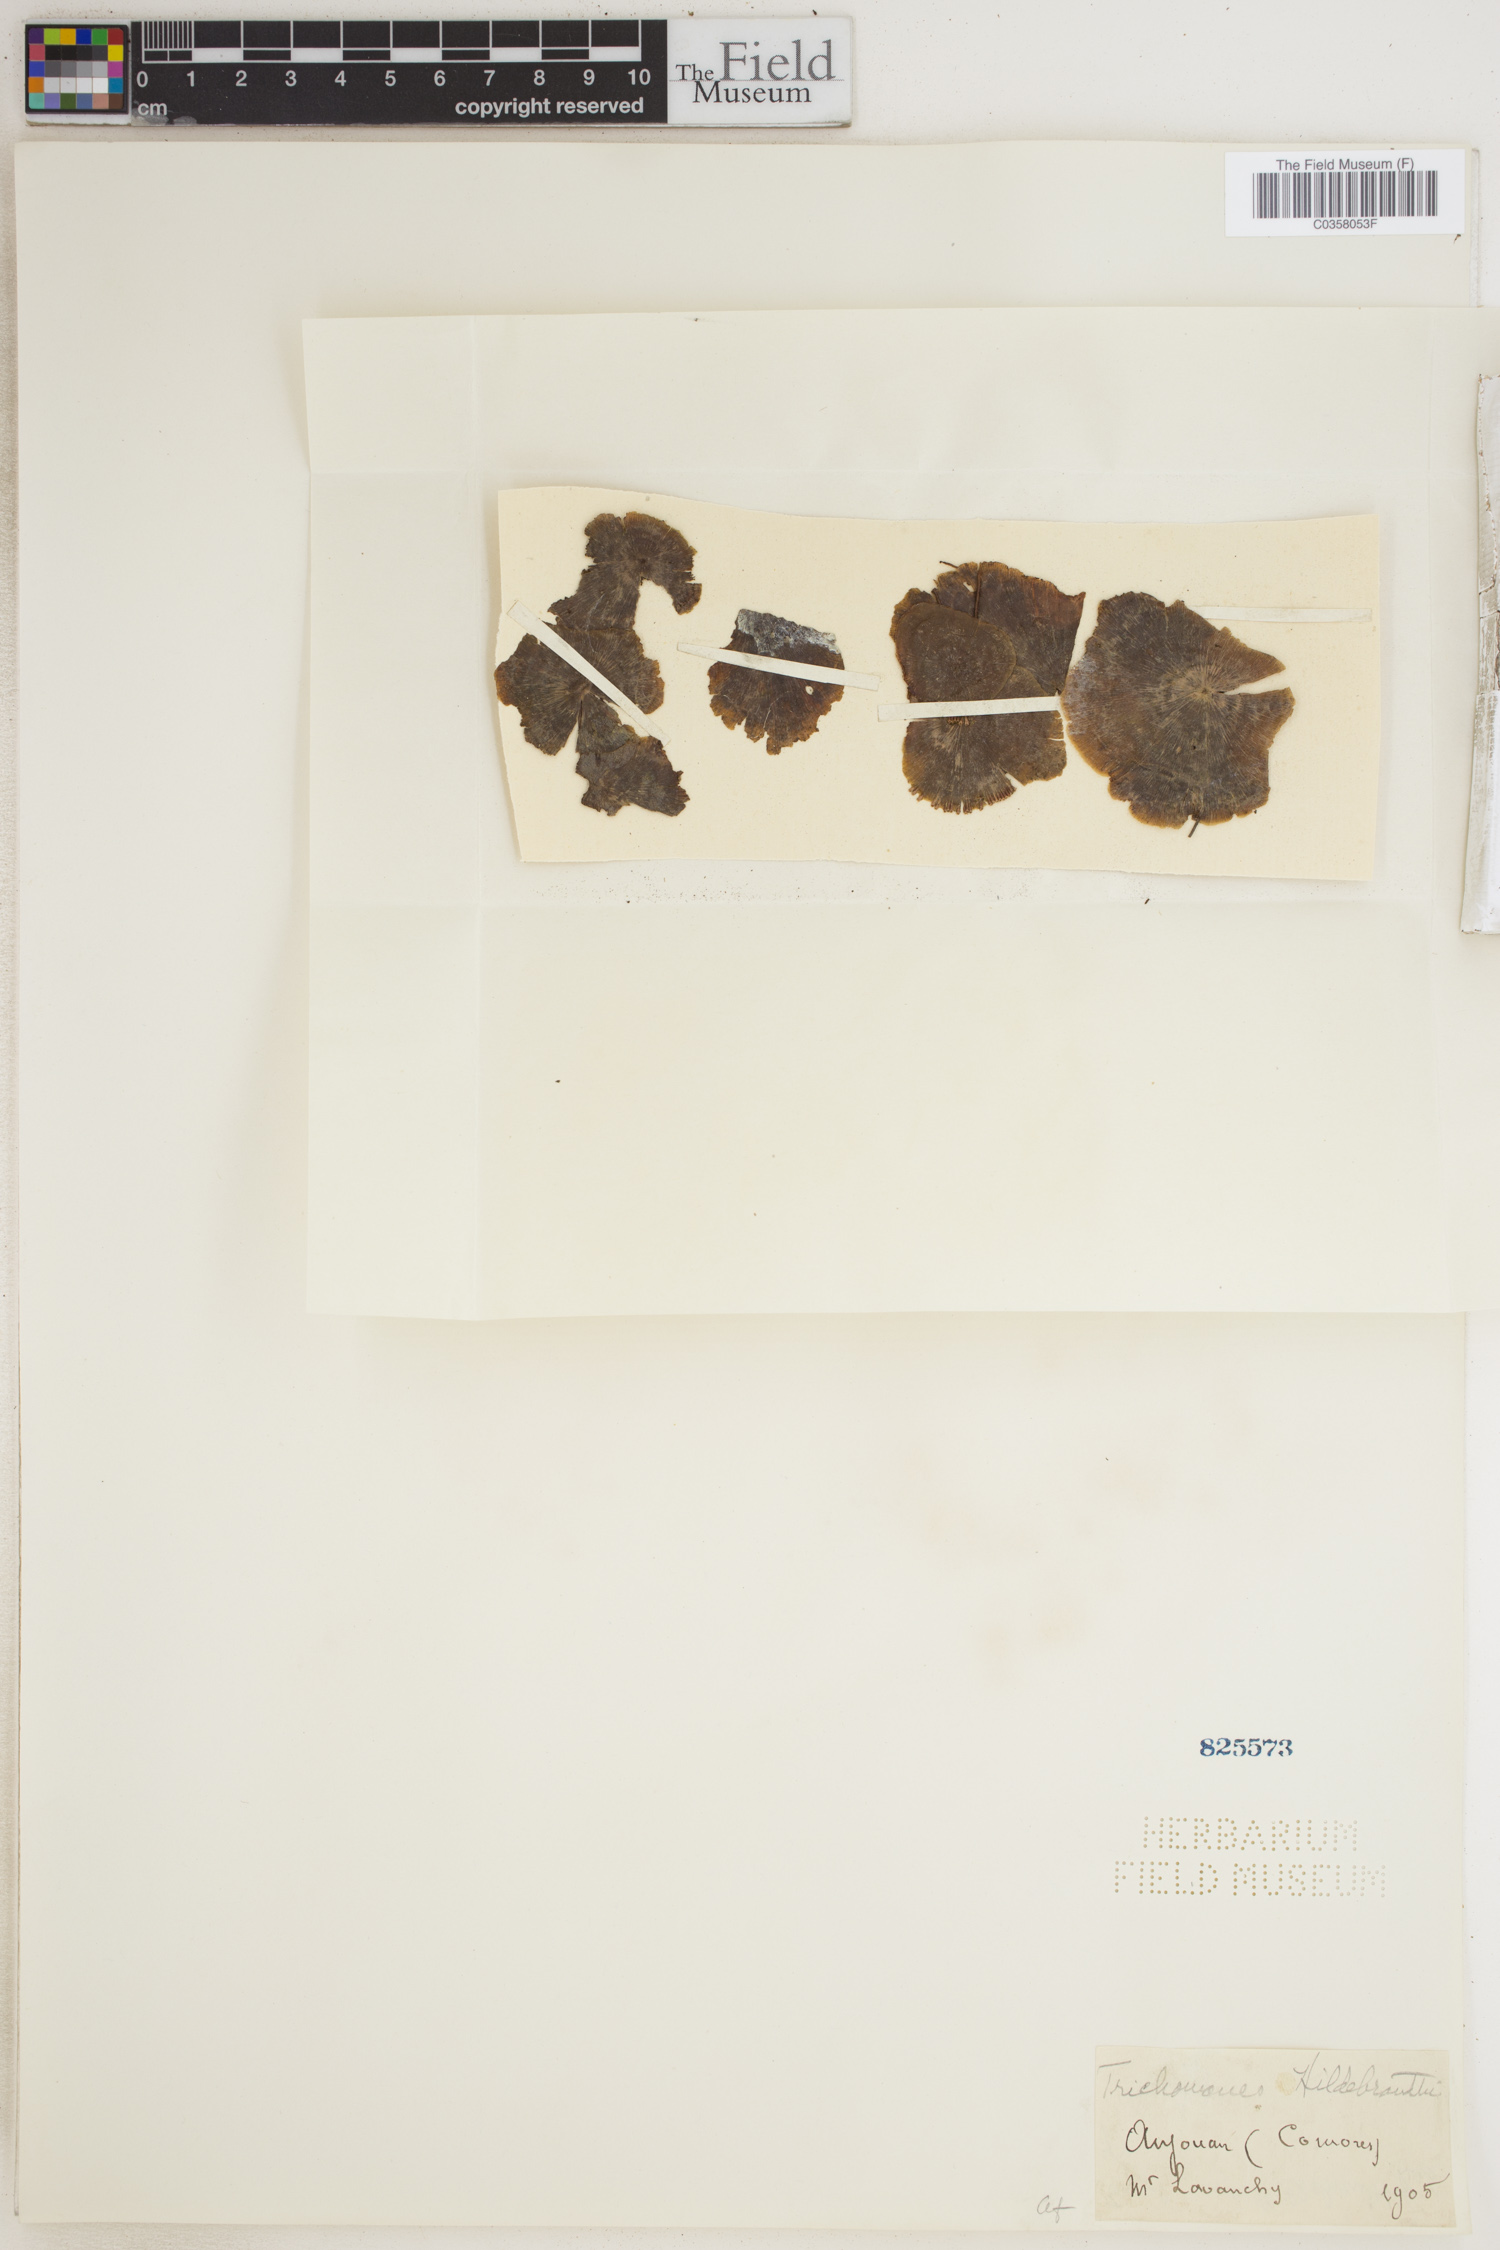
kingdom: Plantae
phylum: Tracheophyta
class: Polypodiopsida
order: Hymenophyllales
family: Hymenophyllaceae
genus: Didymoglossum
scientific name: Didymoglossum hildebrandtii
